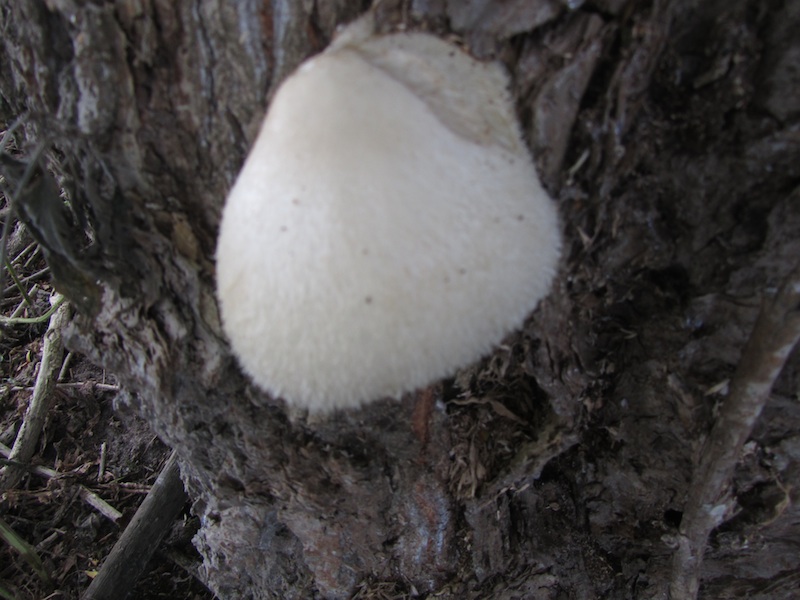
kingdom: Fungi
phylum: Basidiomycota
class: Agaricomycetes
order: Agaricales
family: Pluteaceae
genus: Volvariella
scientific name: Volvariella bombycina
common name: silkehåret posesvamp
